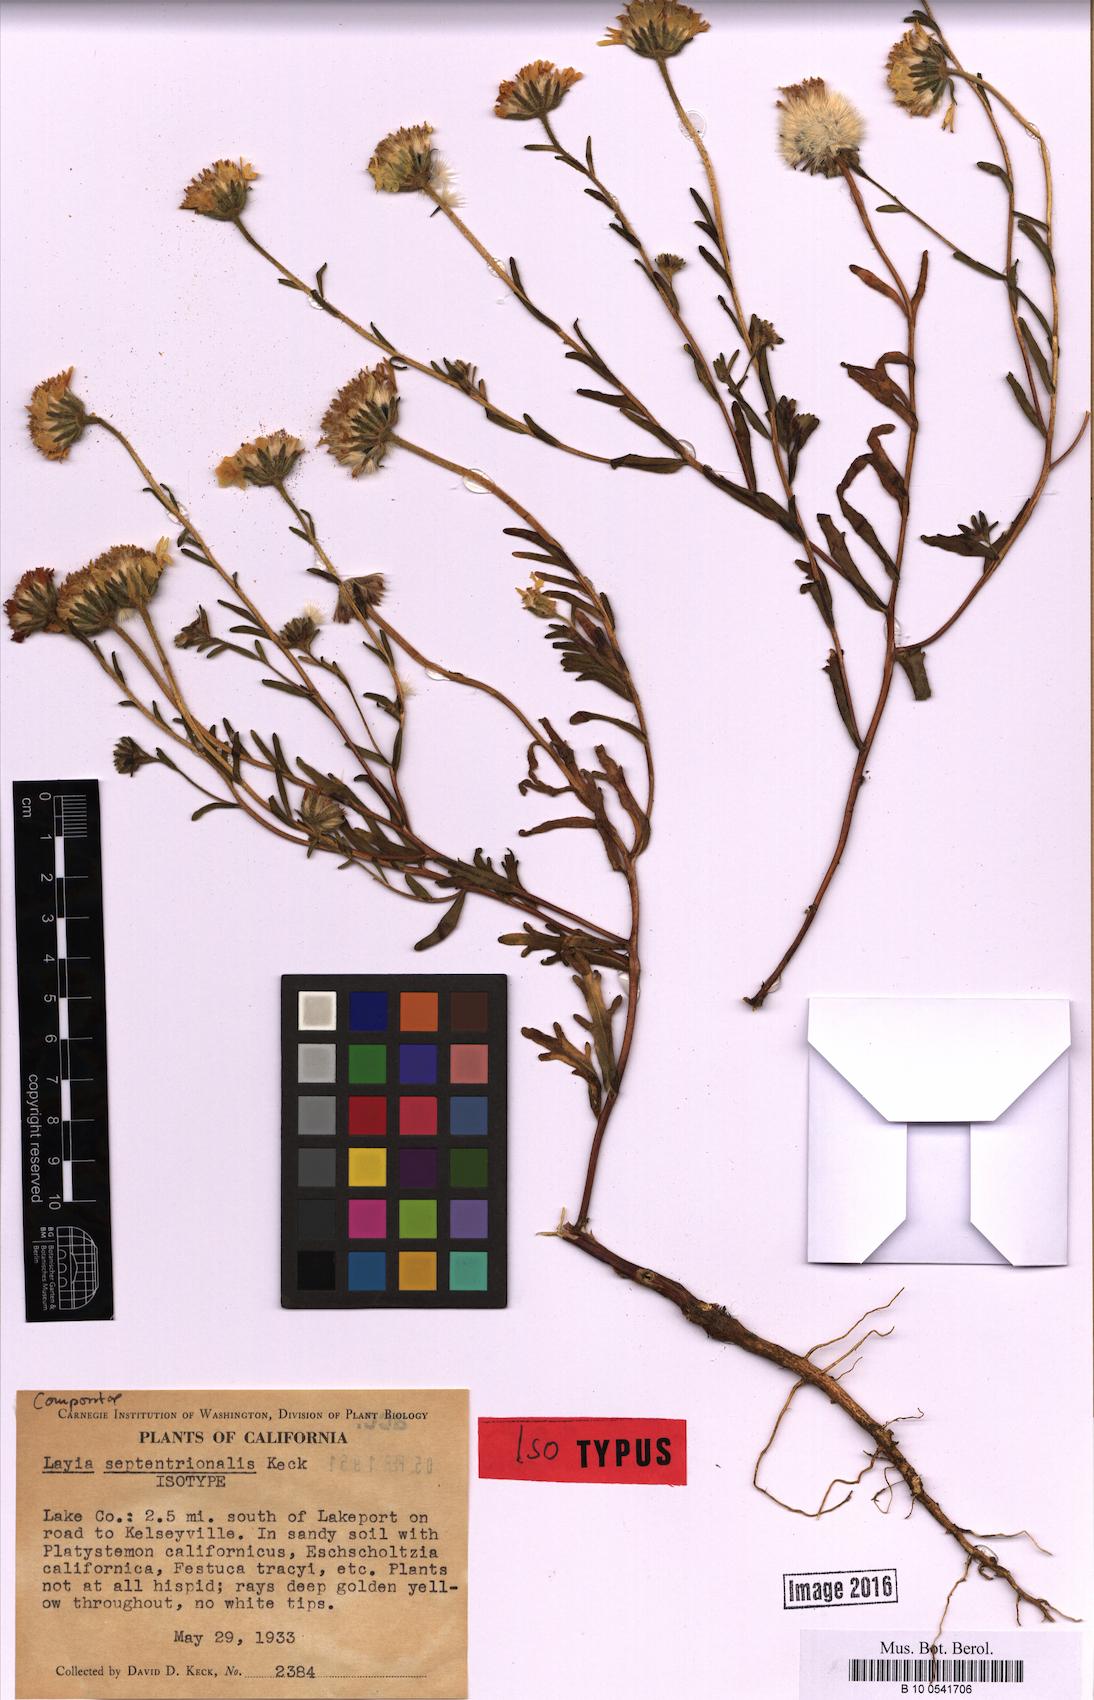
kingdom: Plantae
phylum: Tracheophyta
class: Magnoliopsida
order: Asterales
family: Asteraceae
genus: Layia
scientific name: Layia septentrionalis
